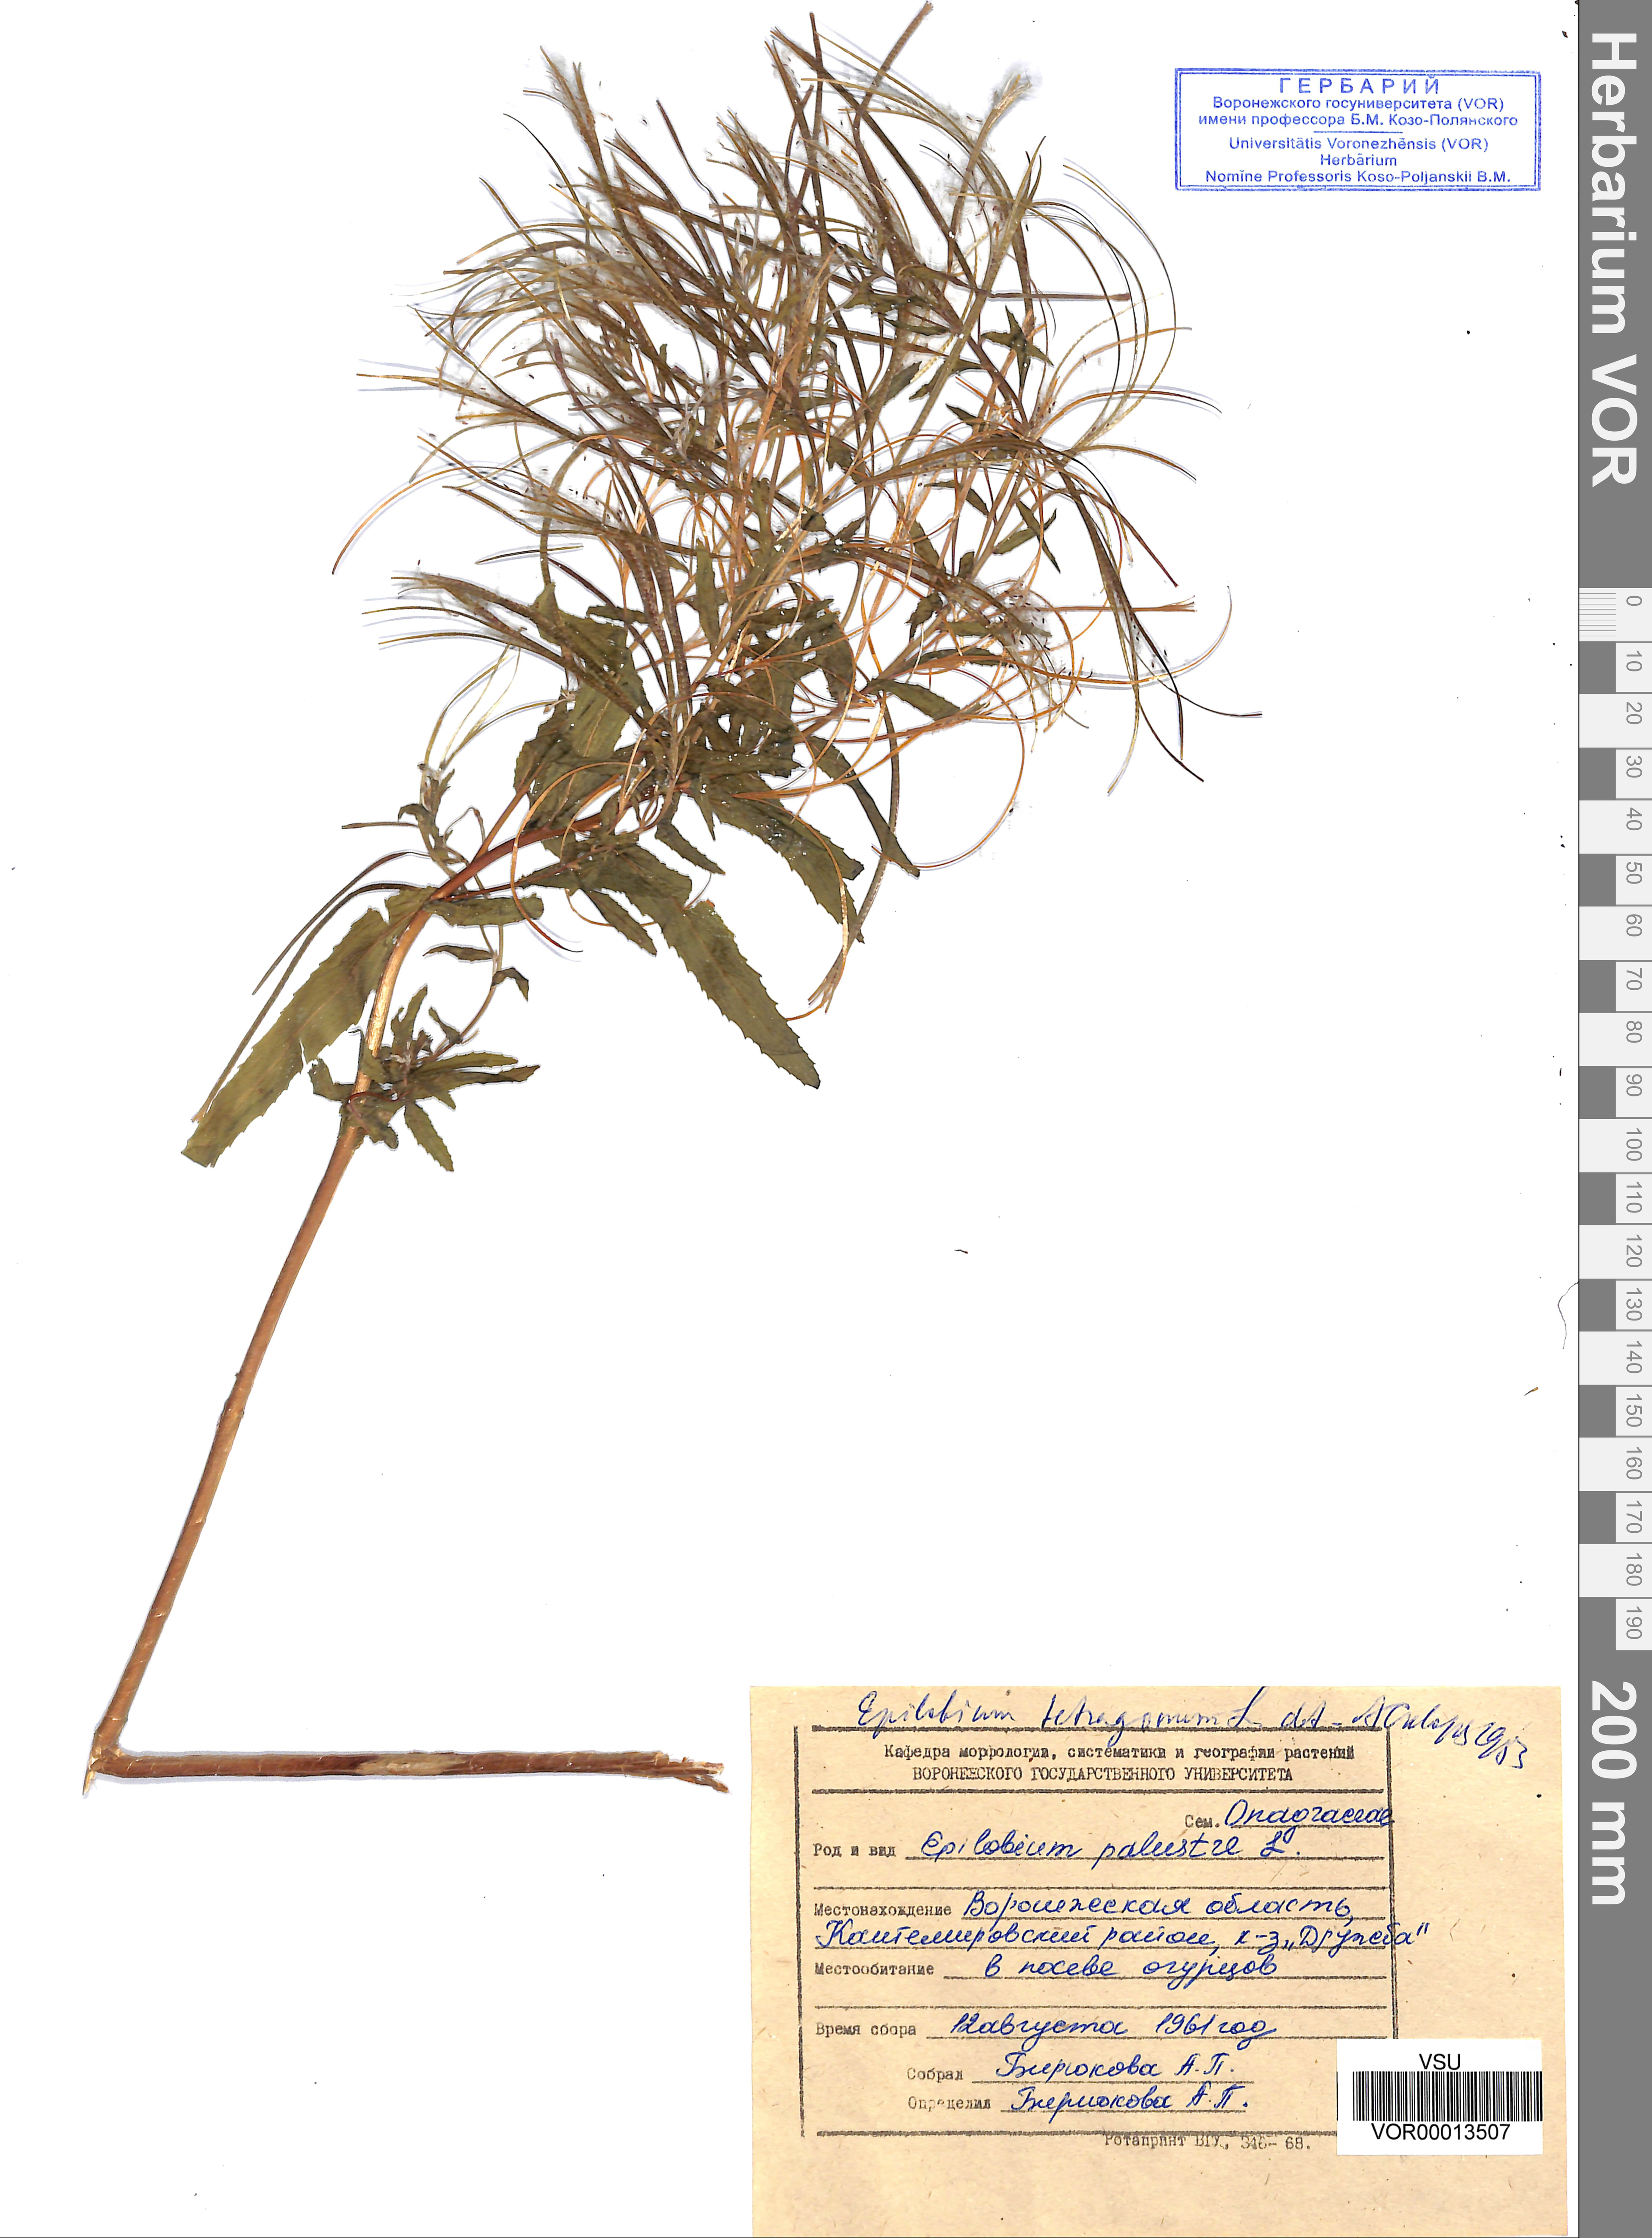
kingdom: Plantae
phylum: Tracheophyta
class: Magnoliopsida
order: Myrtales
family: Onagraceae
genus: Epilobium
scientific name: Epilobium tetragonum
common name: Square-stemmed willowherb
